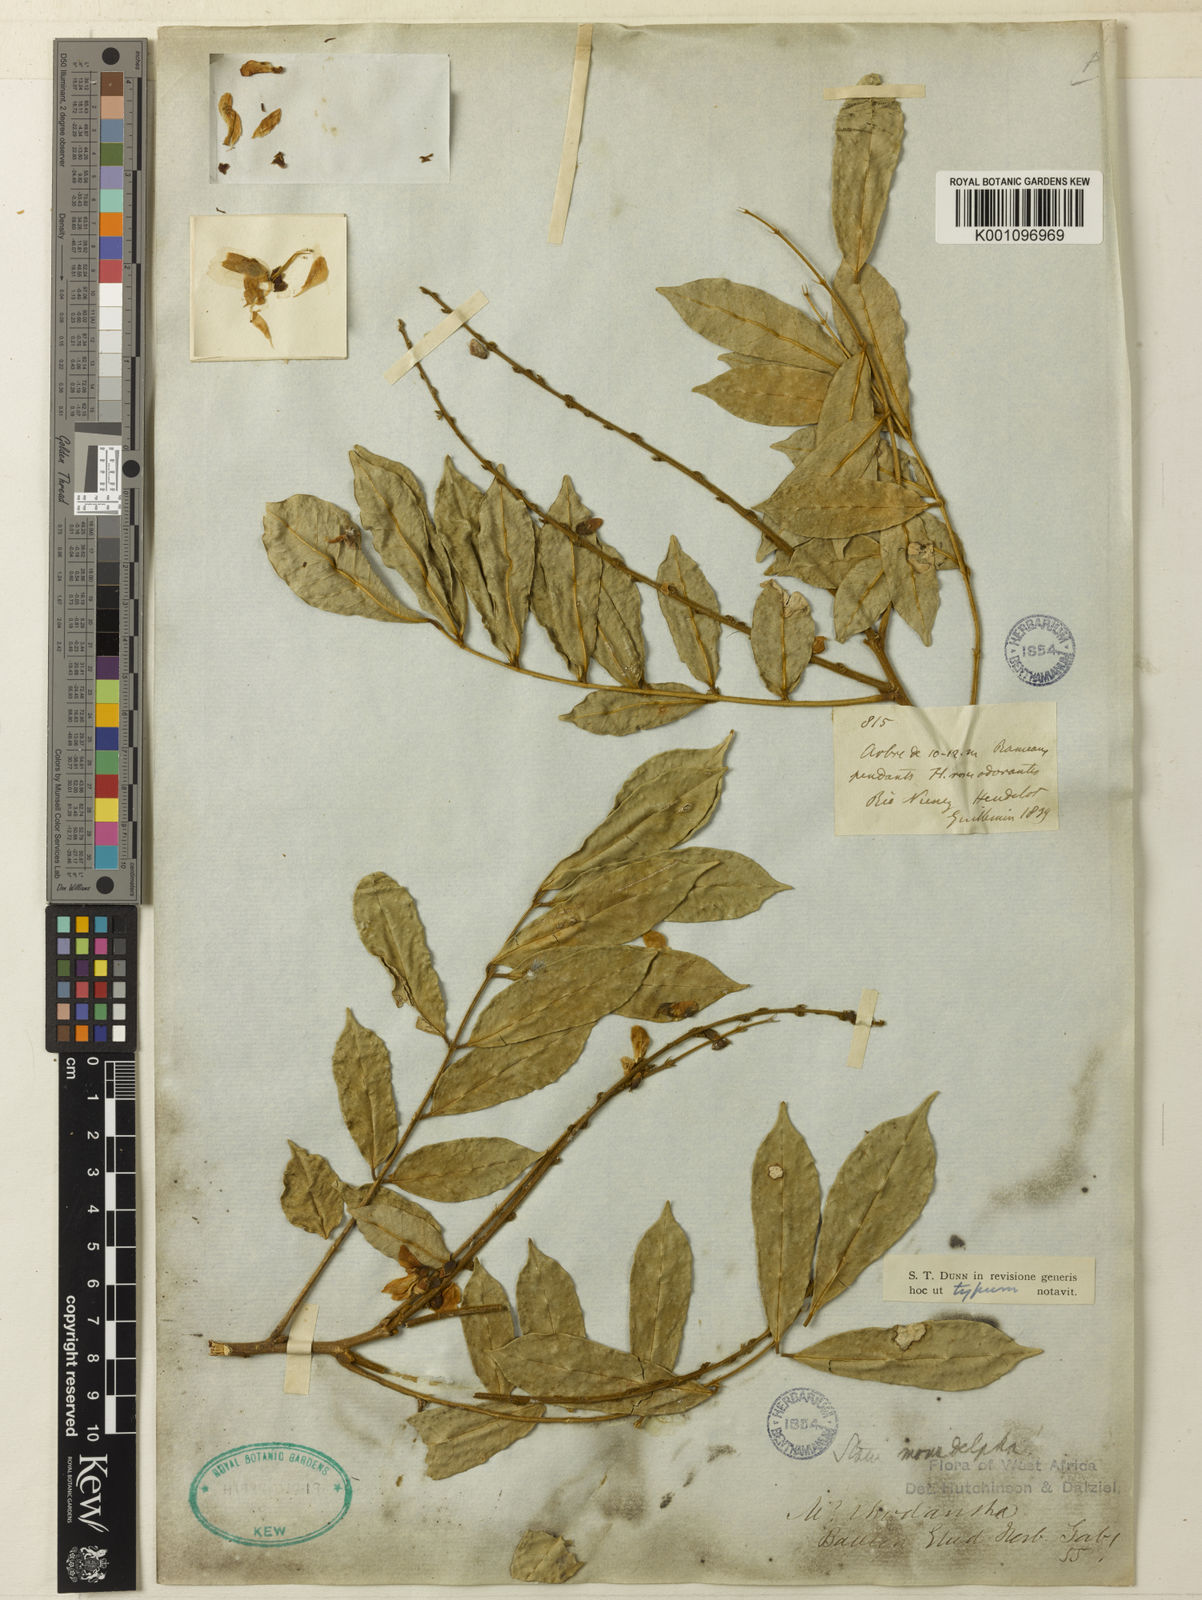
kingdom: Plantae
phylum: Tracheophyta
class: Magnoliopsida
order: Fabales
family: Fabaceae
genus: Millettia
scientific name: Millettia rhodantha
